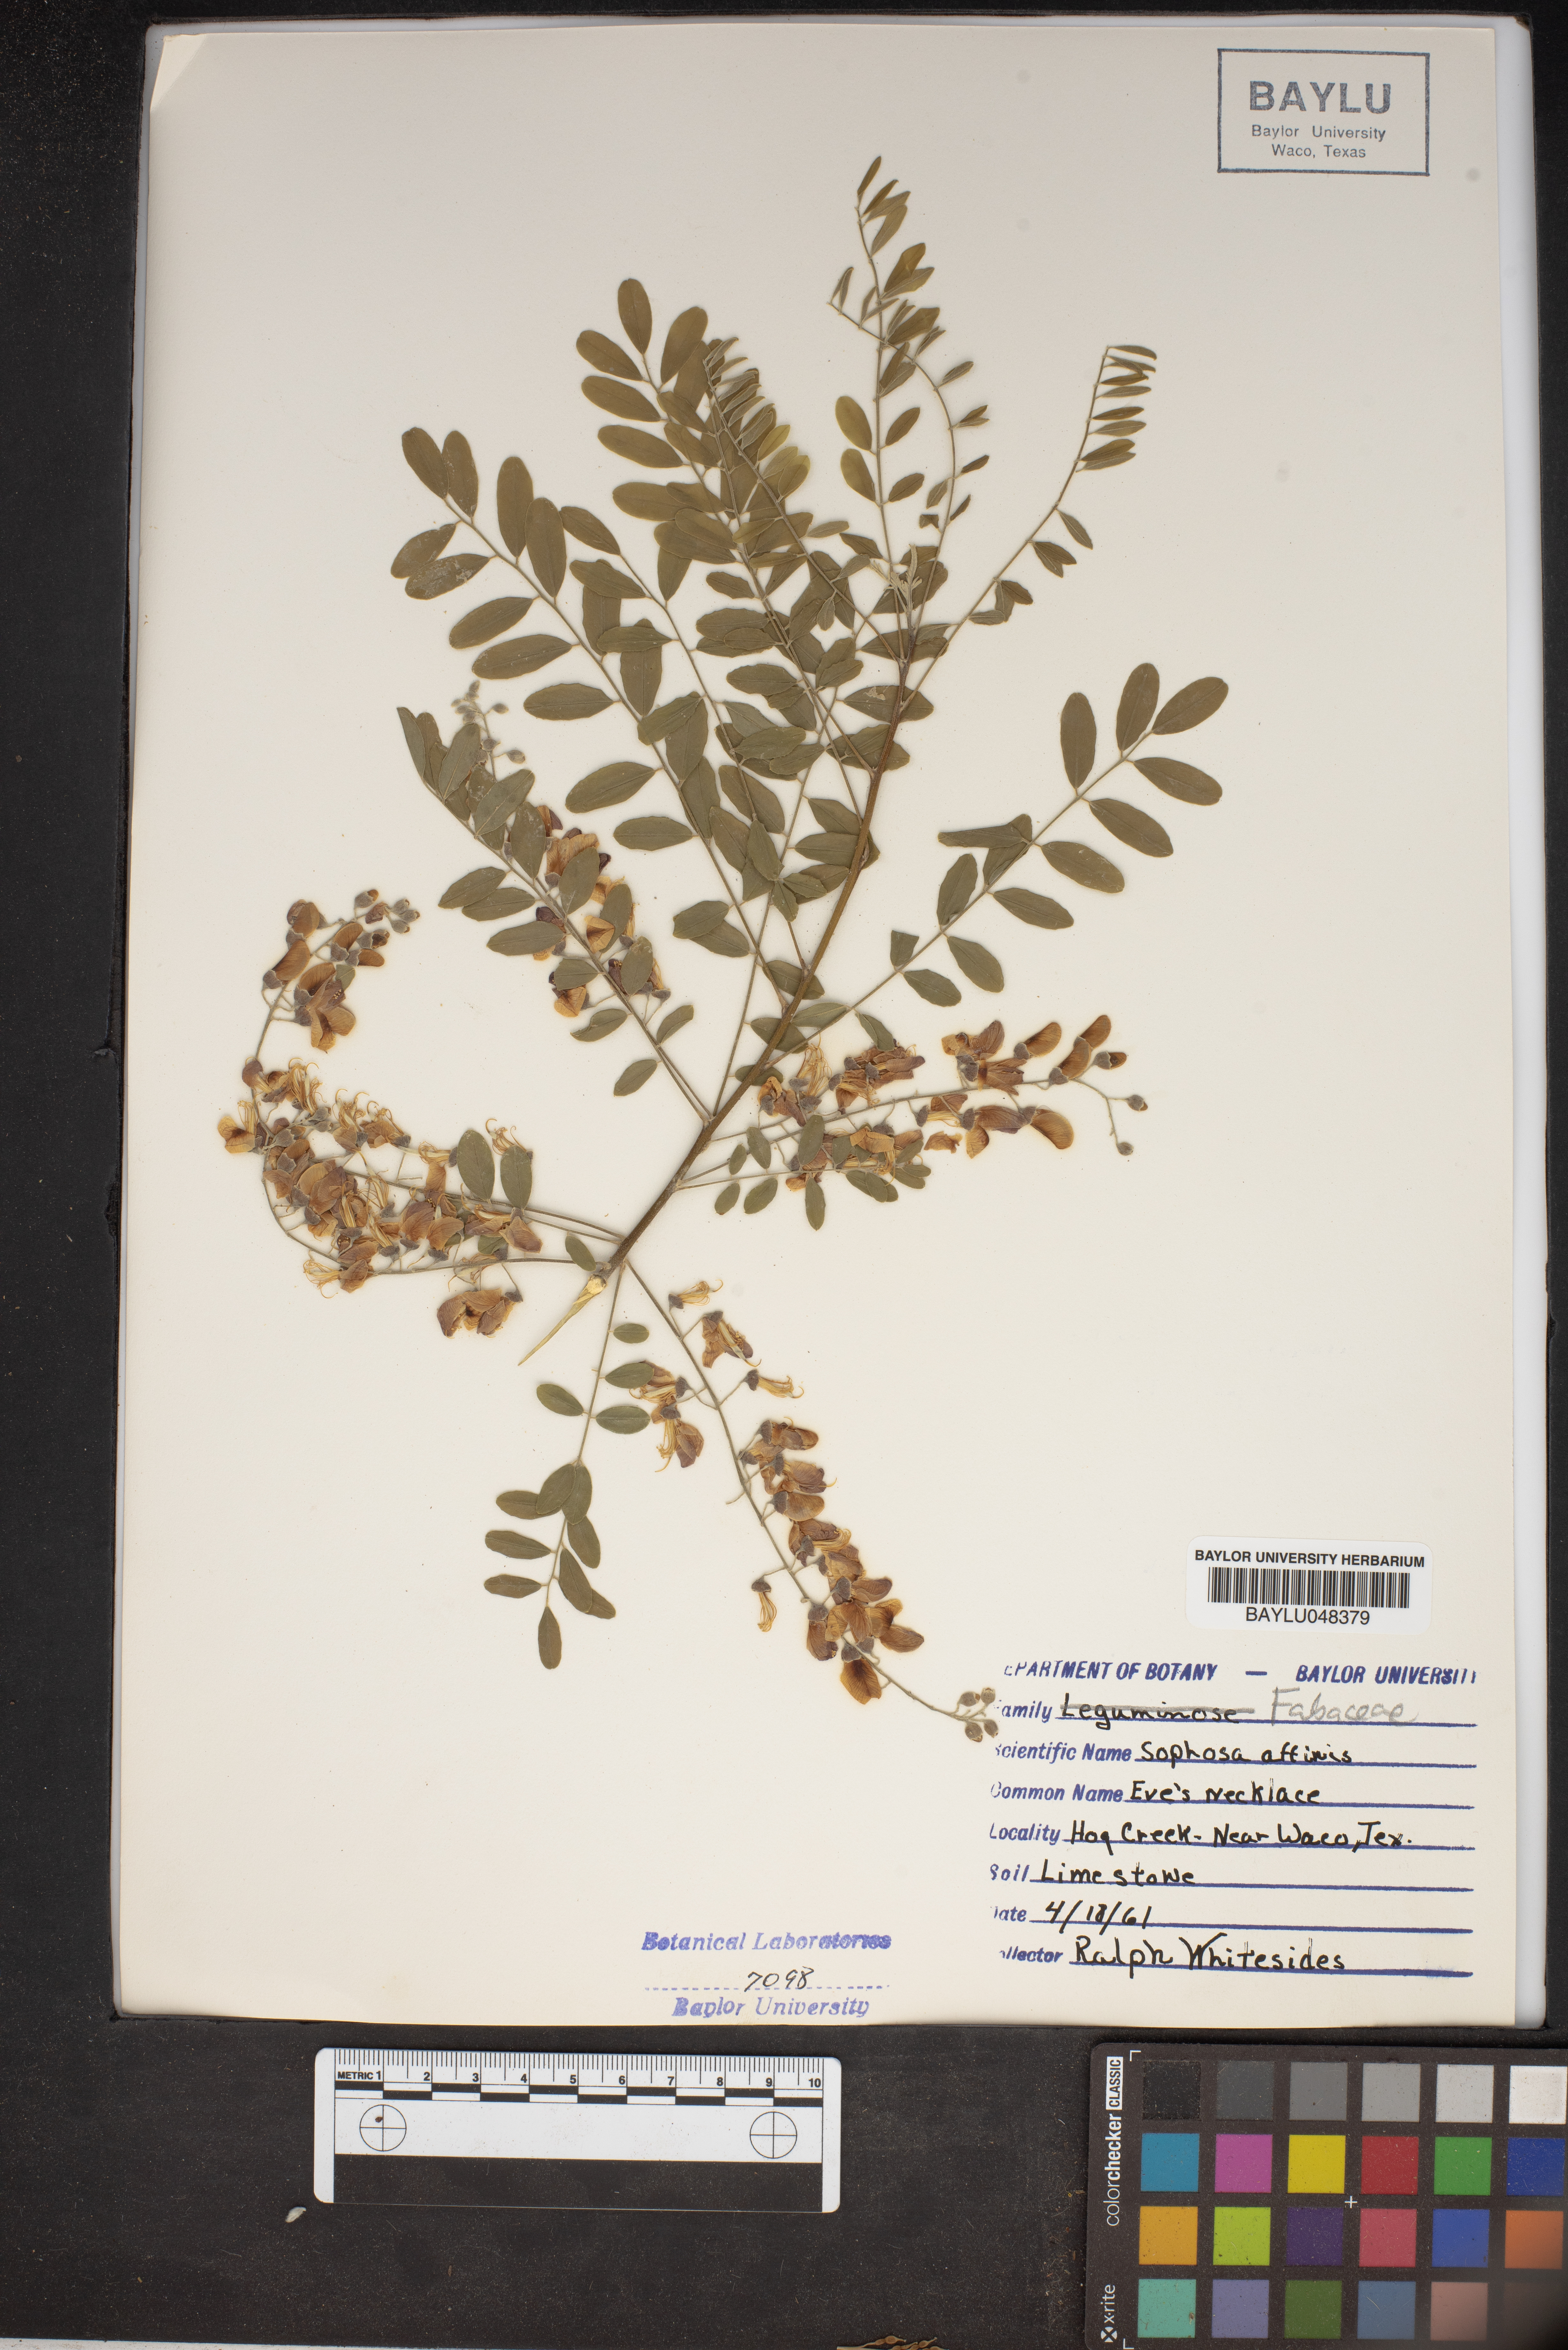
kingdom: Plantae
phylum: Tracheophyta
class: Magnoliopsida
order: Fabales
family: Fabaceae
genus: Styphnolobium
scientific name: Styphnolobium affine
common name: Texas sophora
